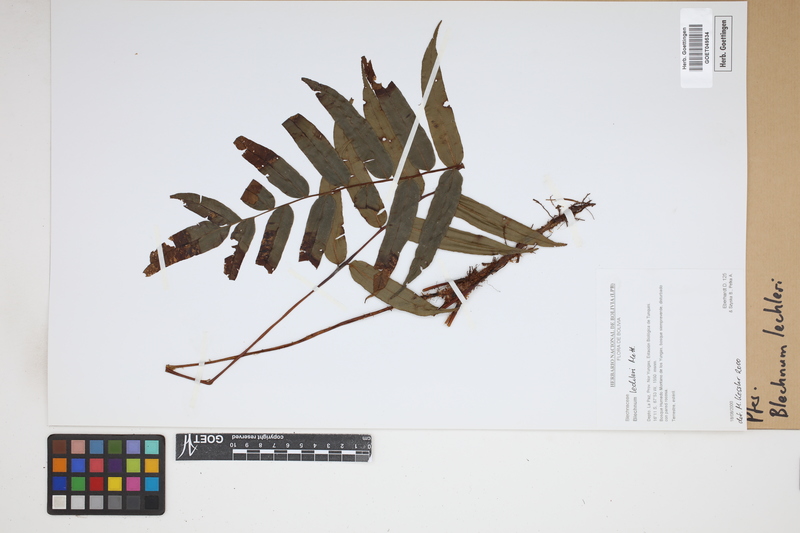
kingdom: Plantae
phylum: Tracheophyta
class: Polypodiopsida
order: Polypodiales
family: Blechnaceae
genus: Parablechnum
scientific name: Parablechnum lechleri
